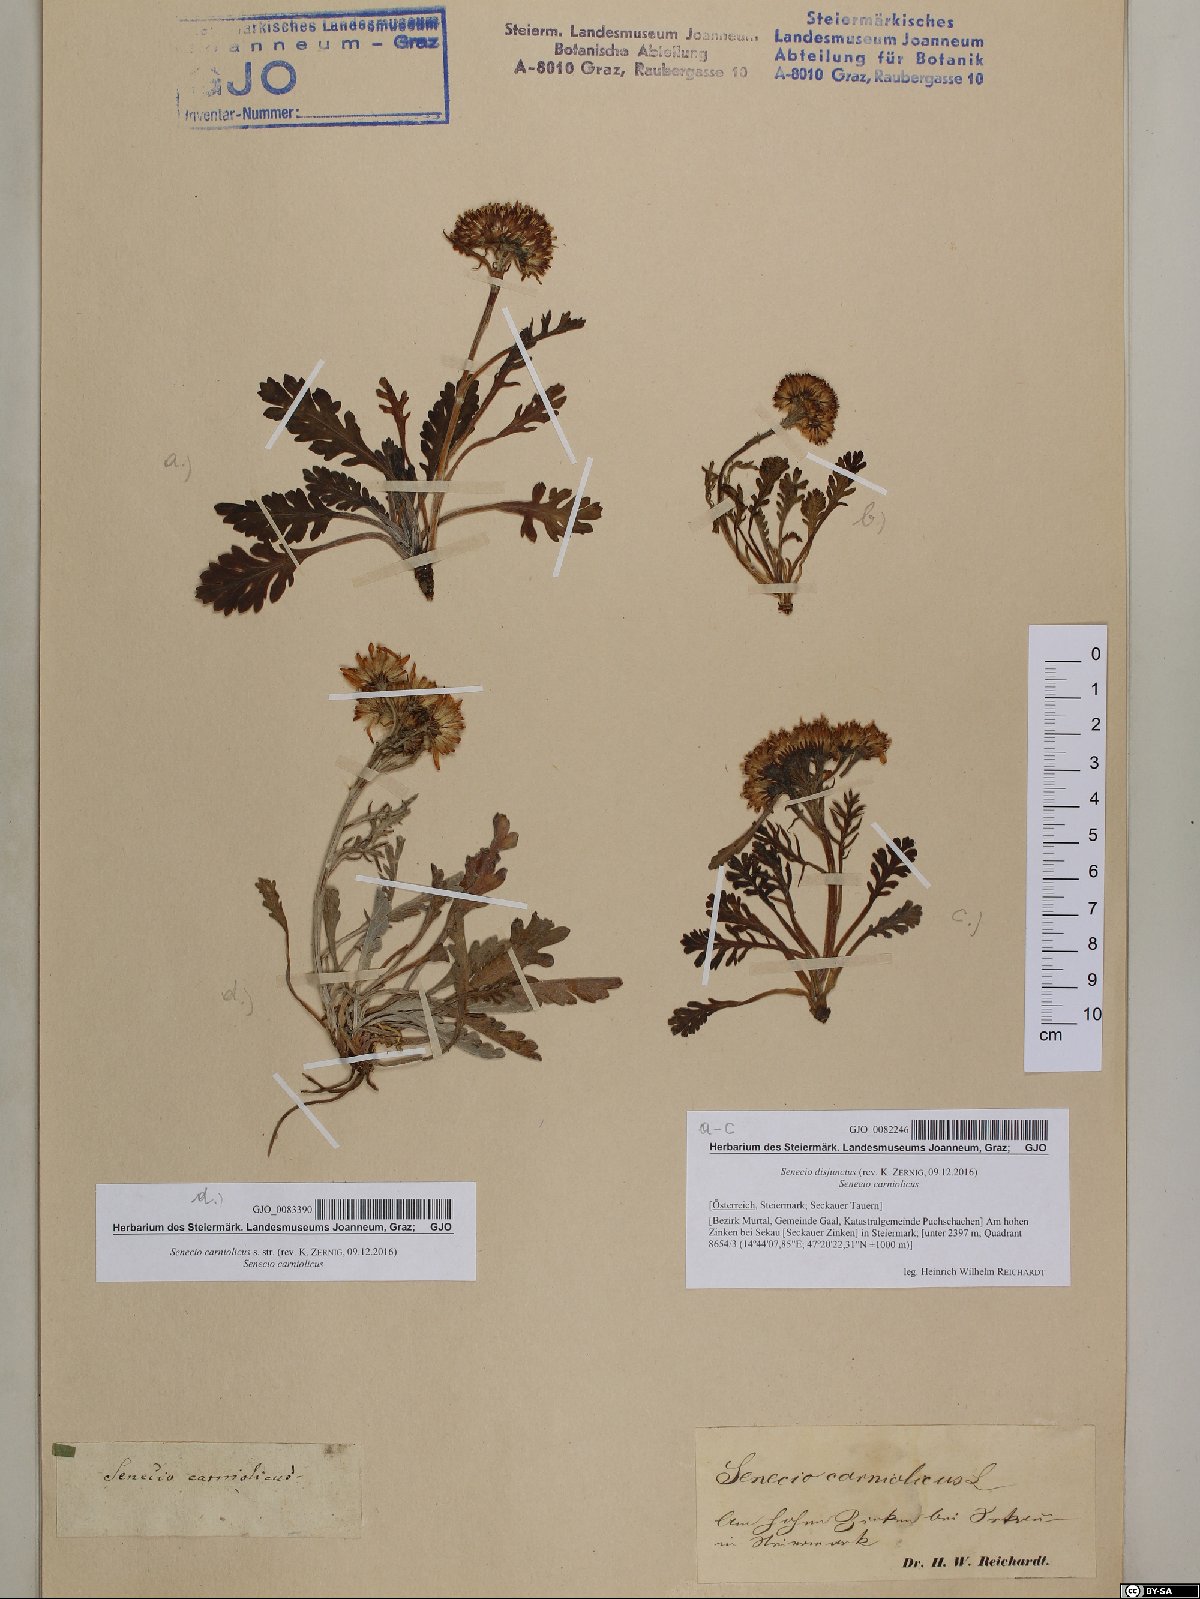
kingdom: Plantae
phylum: Tracheophyta
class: Magnoliopsida
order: Asterales
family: Asteraceae
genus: Jacobaea
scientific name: Jacobaea disjuncta
